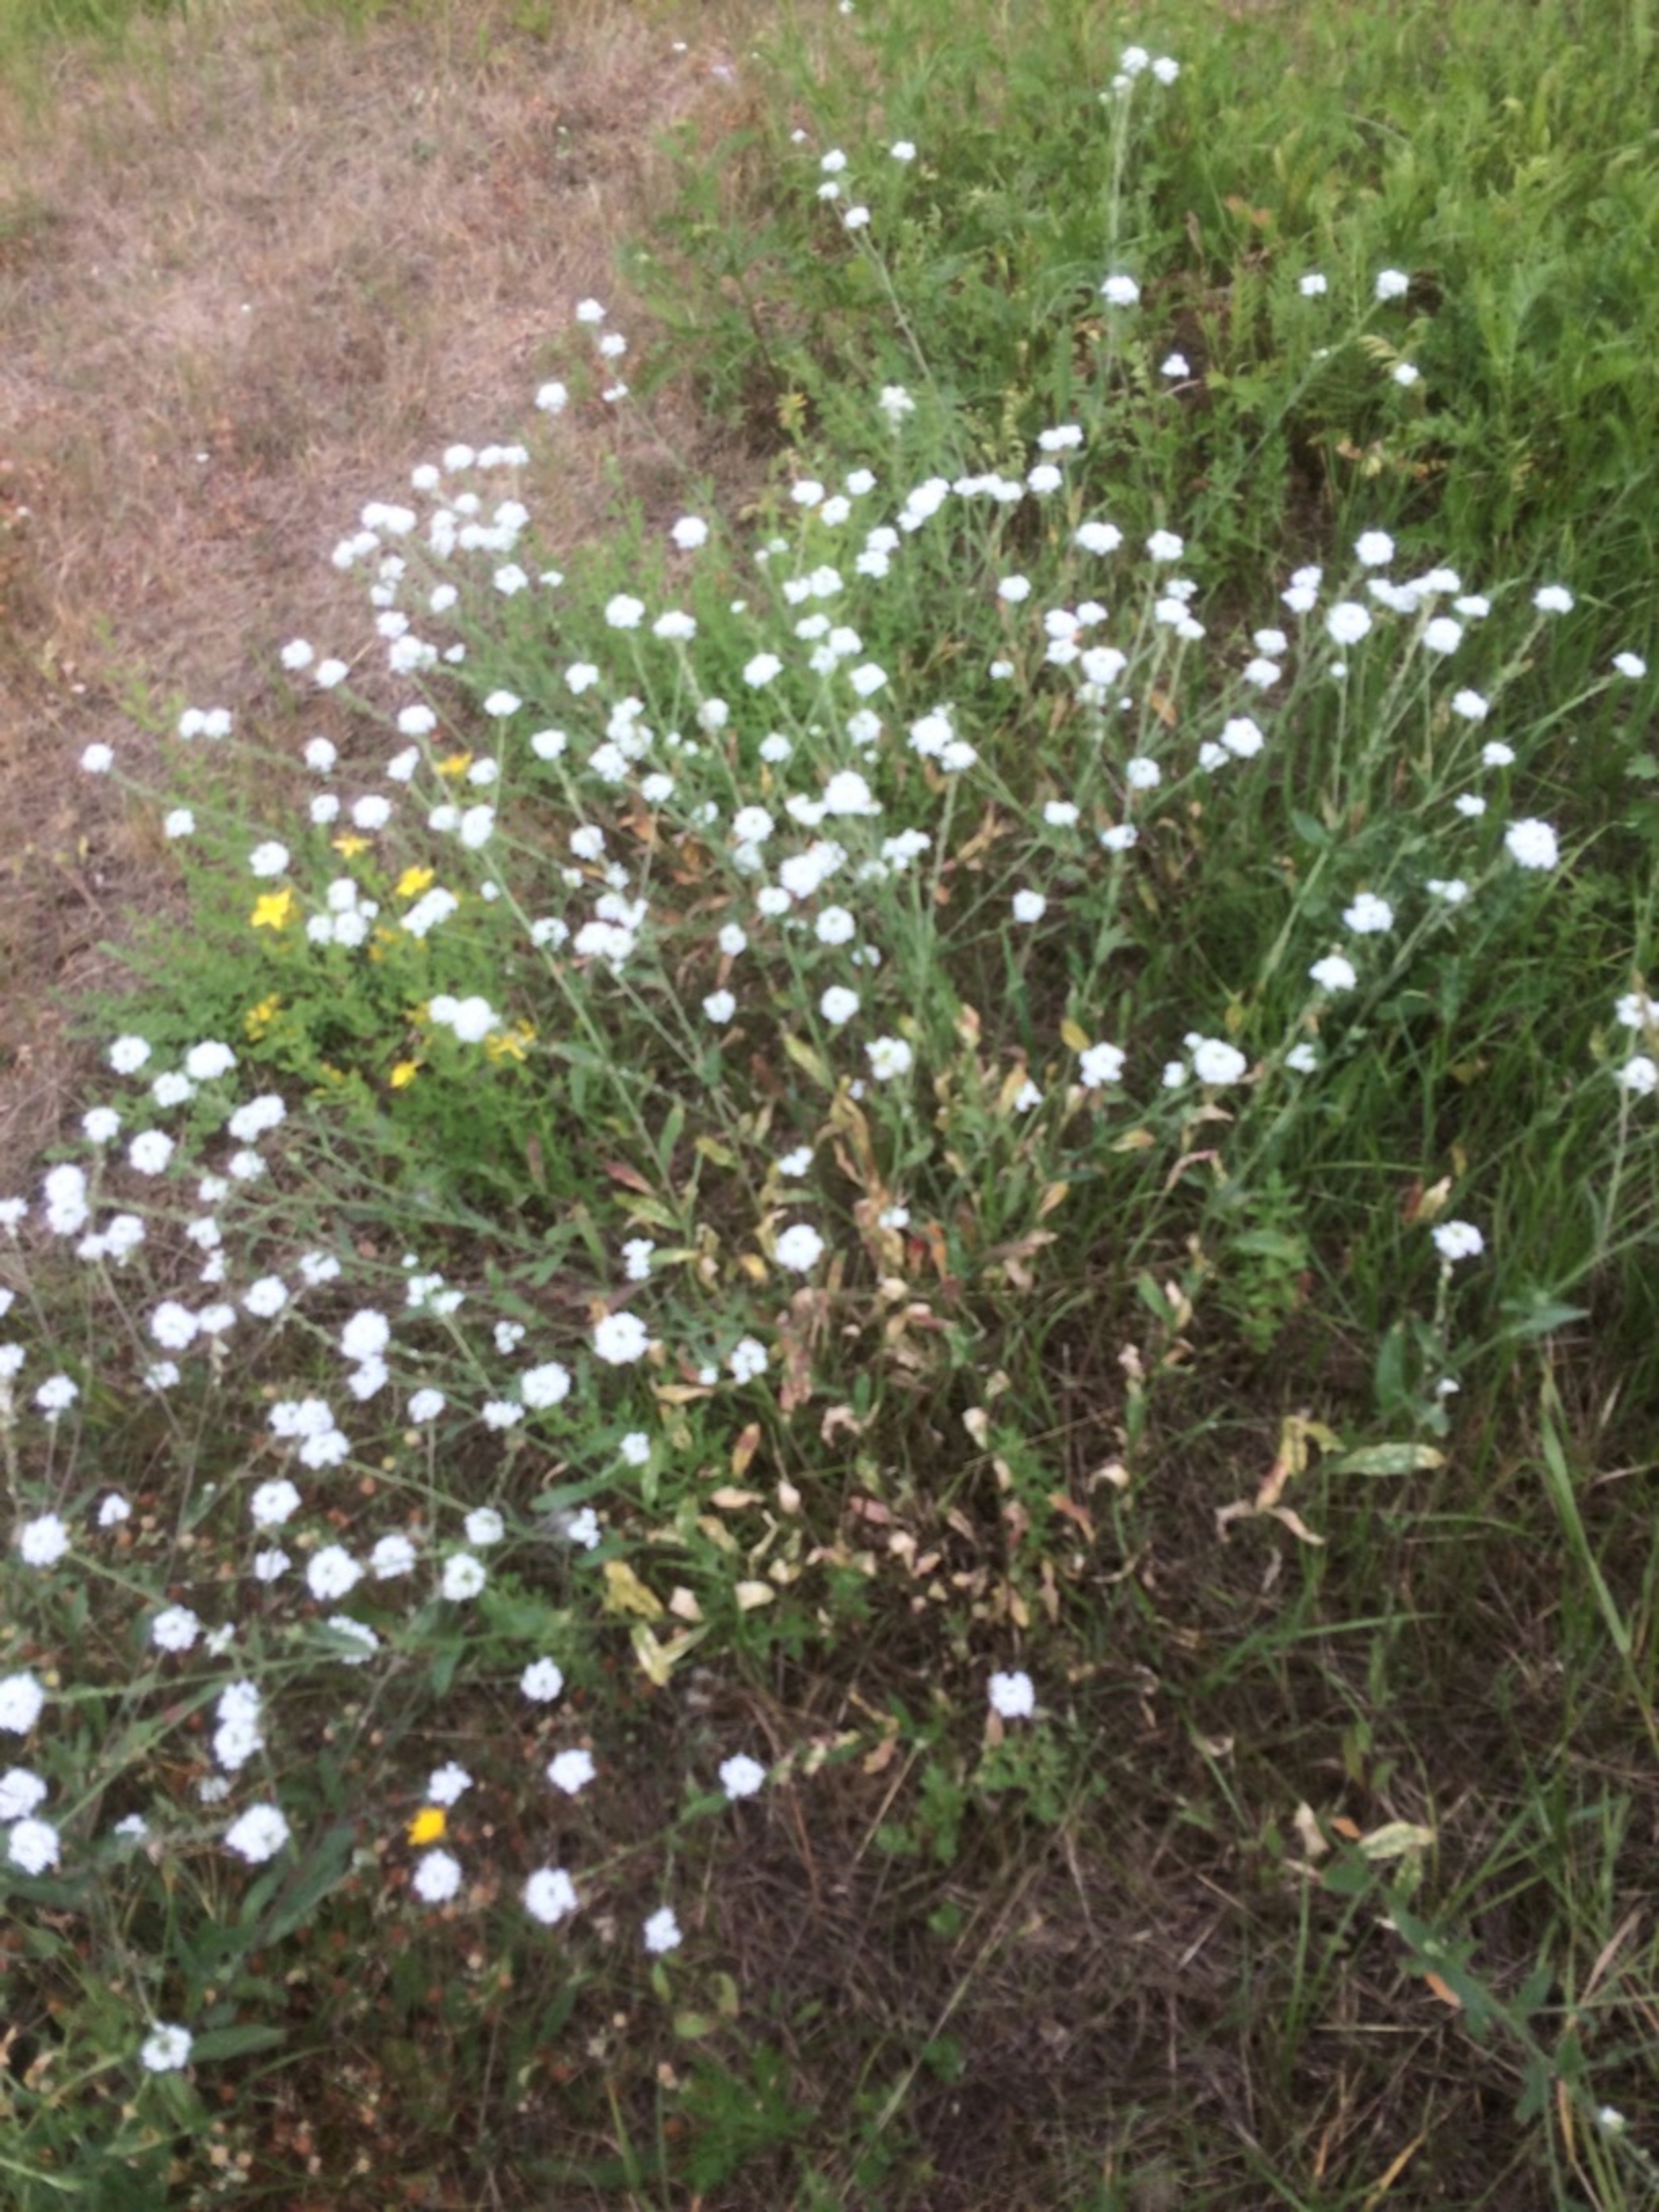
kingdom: Plantae
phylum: Tracheophyta
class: Magnoliopsida
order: Brassicales
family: Brassicaceae
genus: Berteroa
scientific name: Berteroa incana
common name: Kløvplade
